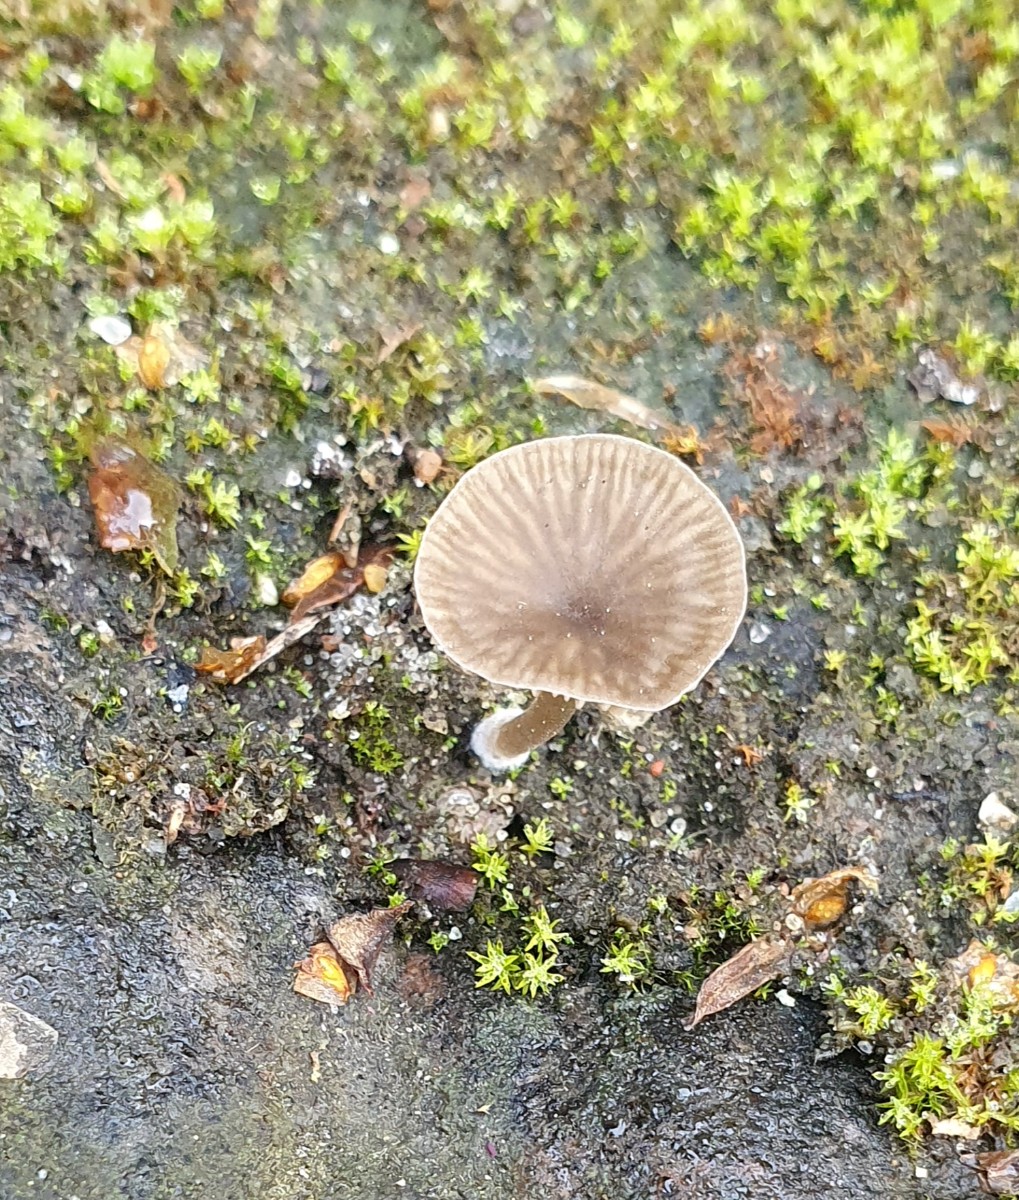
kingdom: Fungi
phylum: Basidiomycota
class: Agaricomycetes
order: Agaricales
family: Hygrophoraceae
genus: Arrhenia
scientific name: Arrhenia rustica
